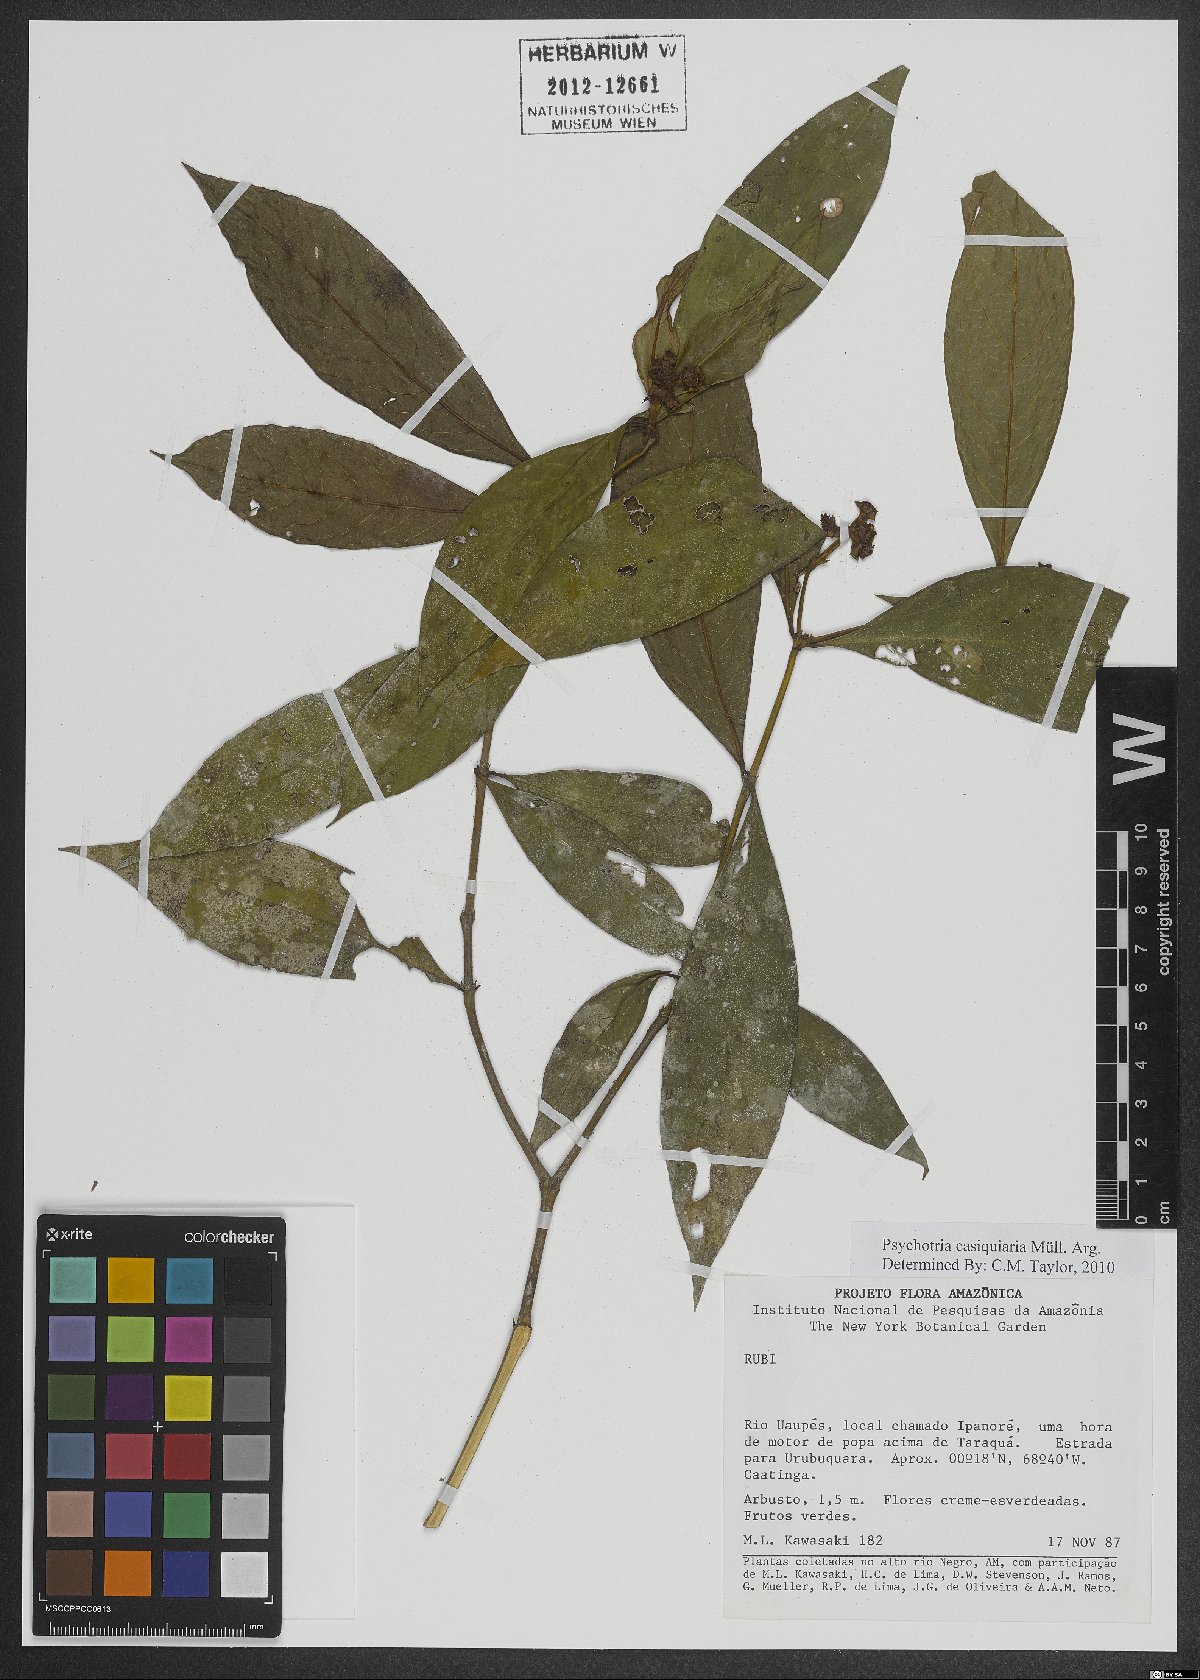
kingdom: Plantae
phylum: Tracheophyta
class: Magnoliopsida
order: Gentianales
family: Rubiaceae
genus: Palicourea
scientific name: Palicourea casiquiaria
